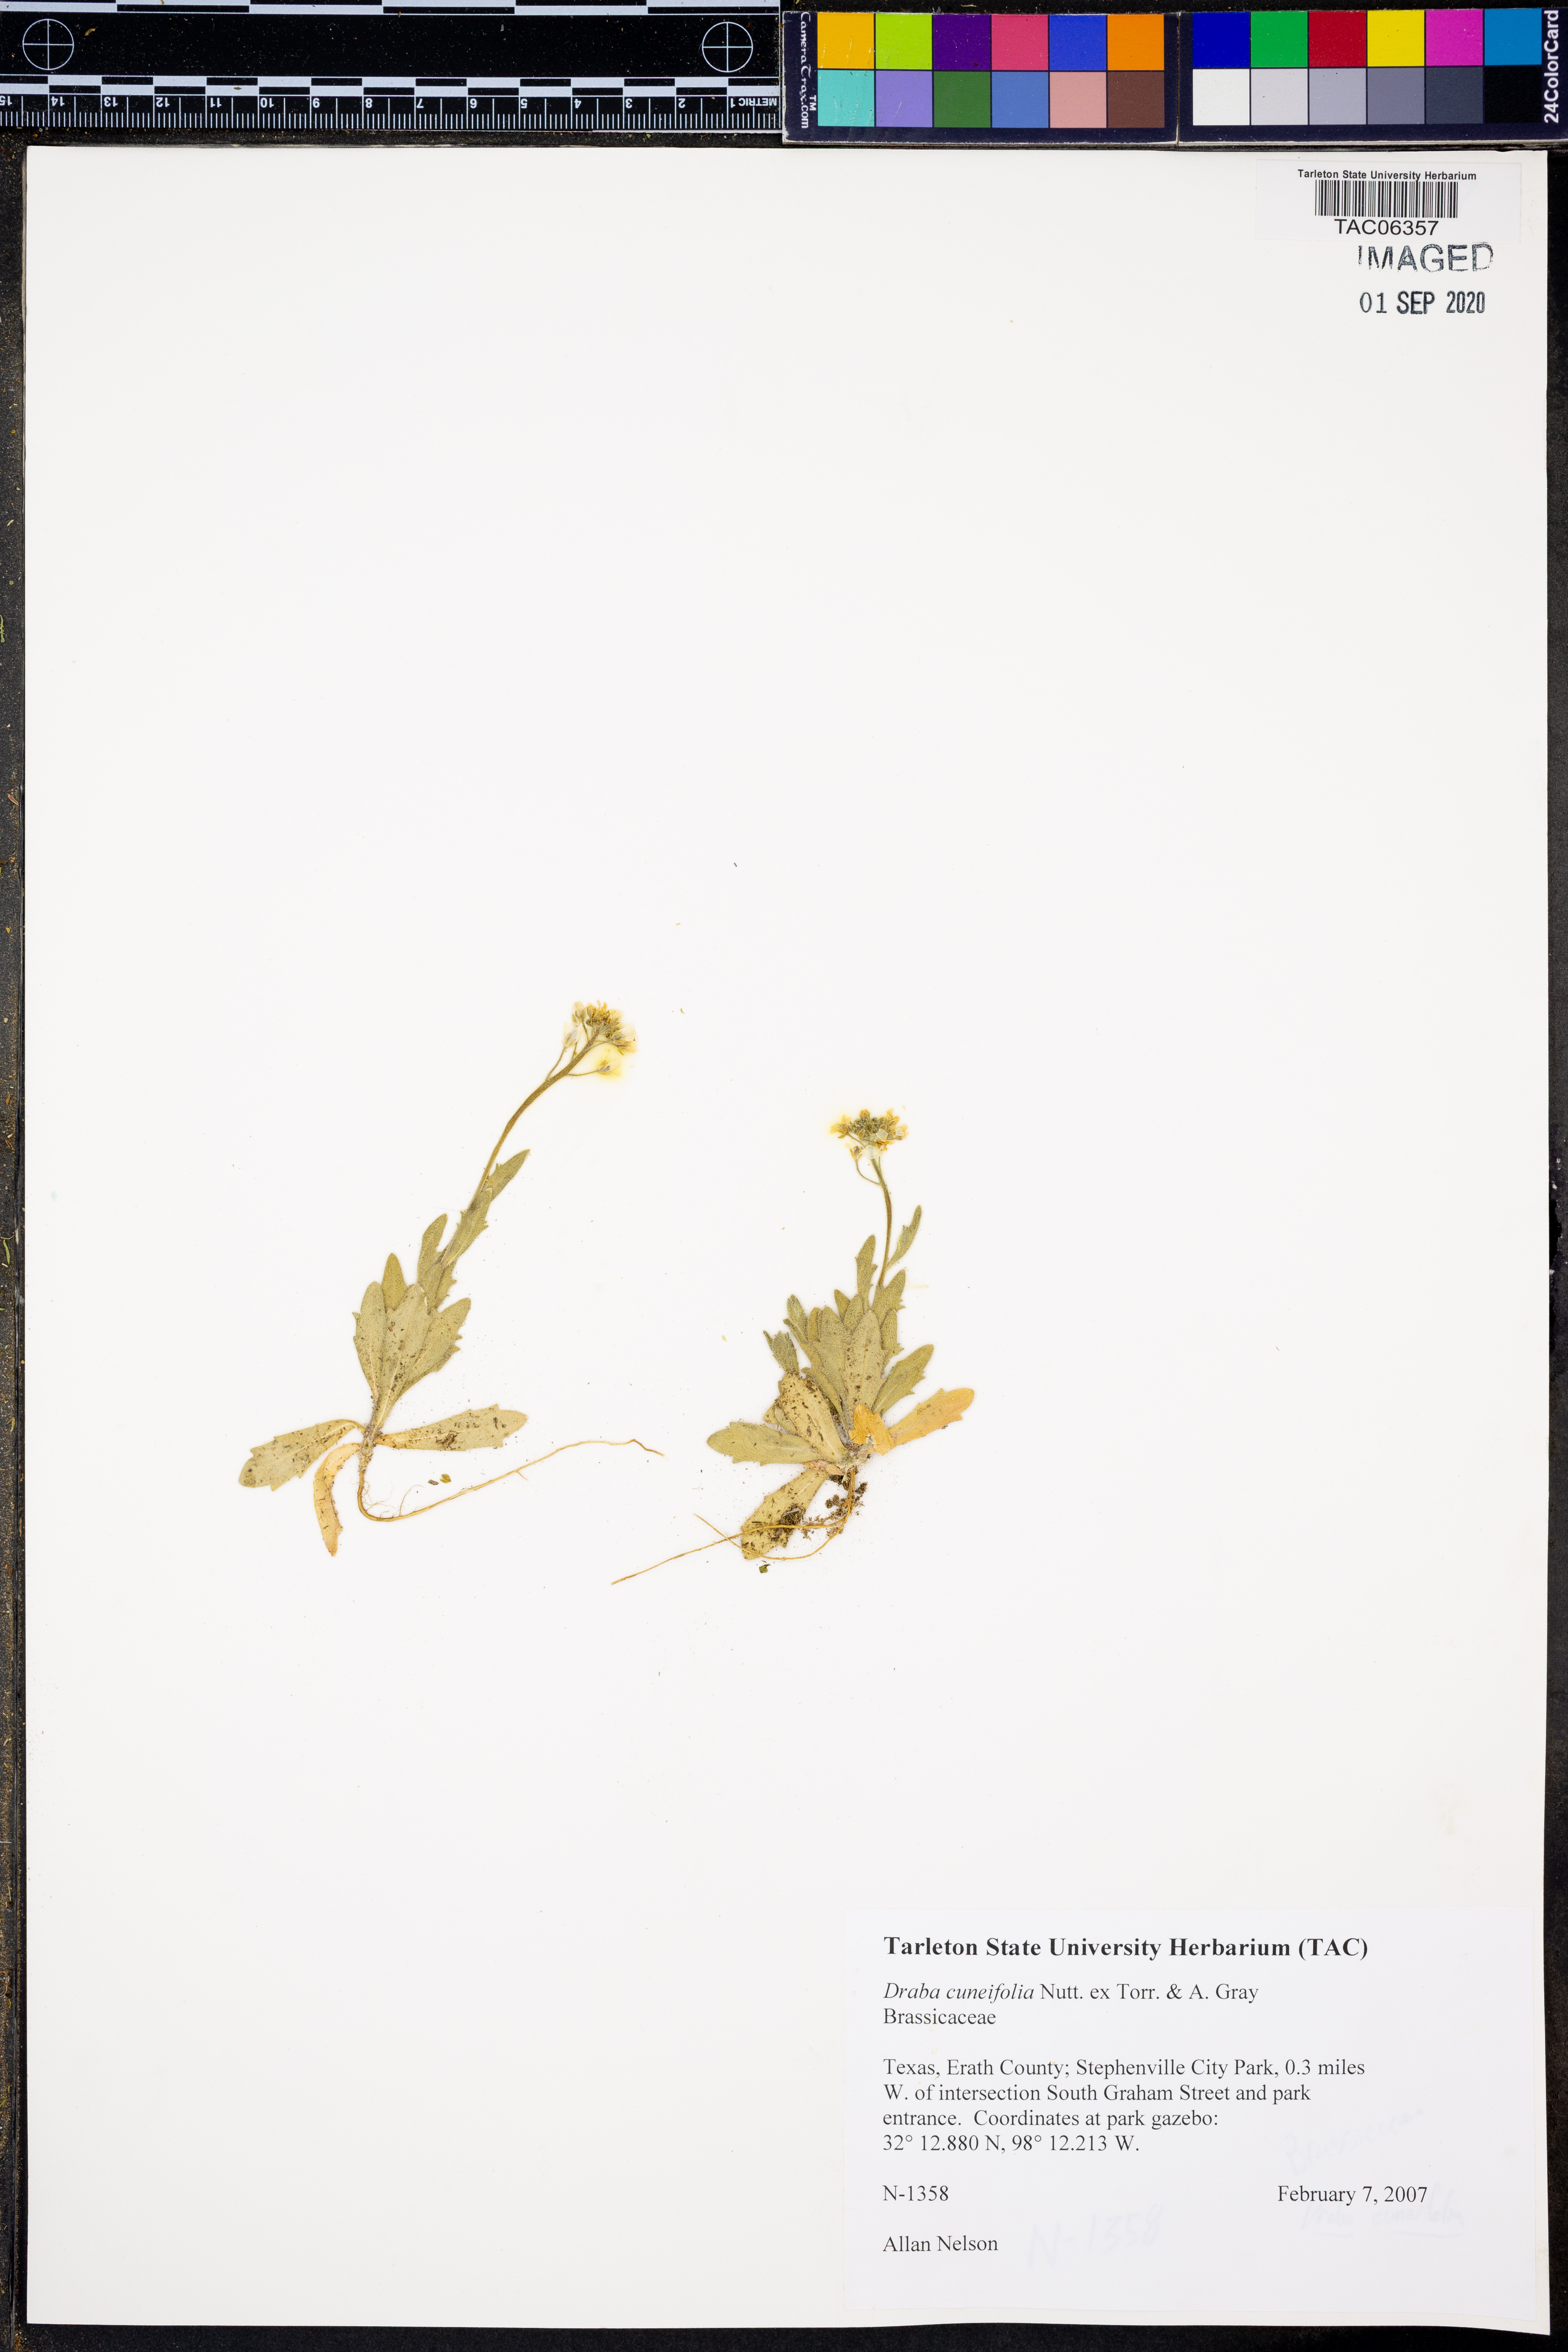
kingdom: Plantae
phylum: Tracheophyta
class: Magnoliopsida
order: Brassicales
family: Brassicaceae
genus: Tomostima
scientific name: Tomostima cuneifolia
